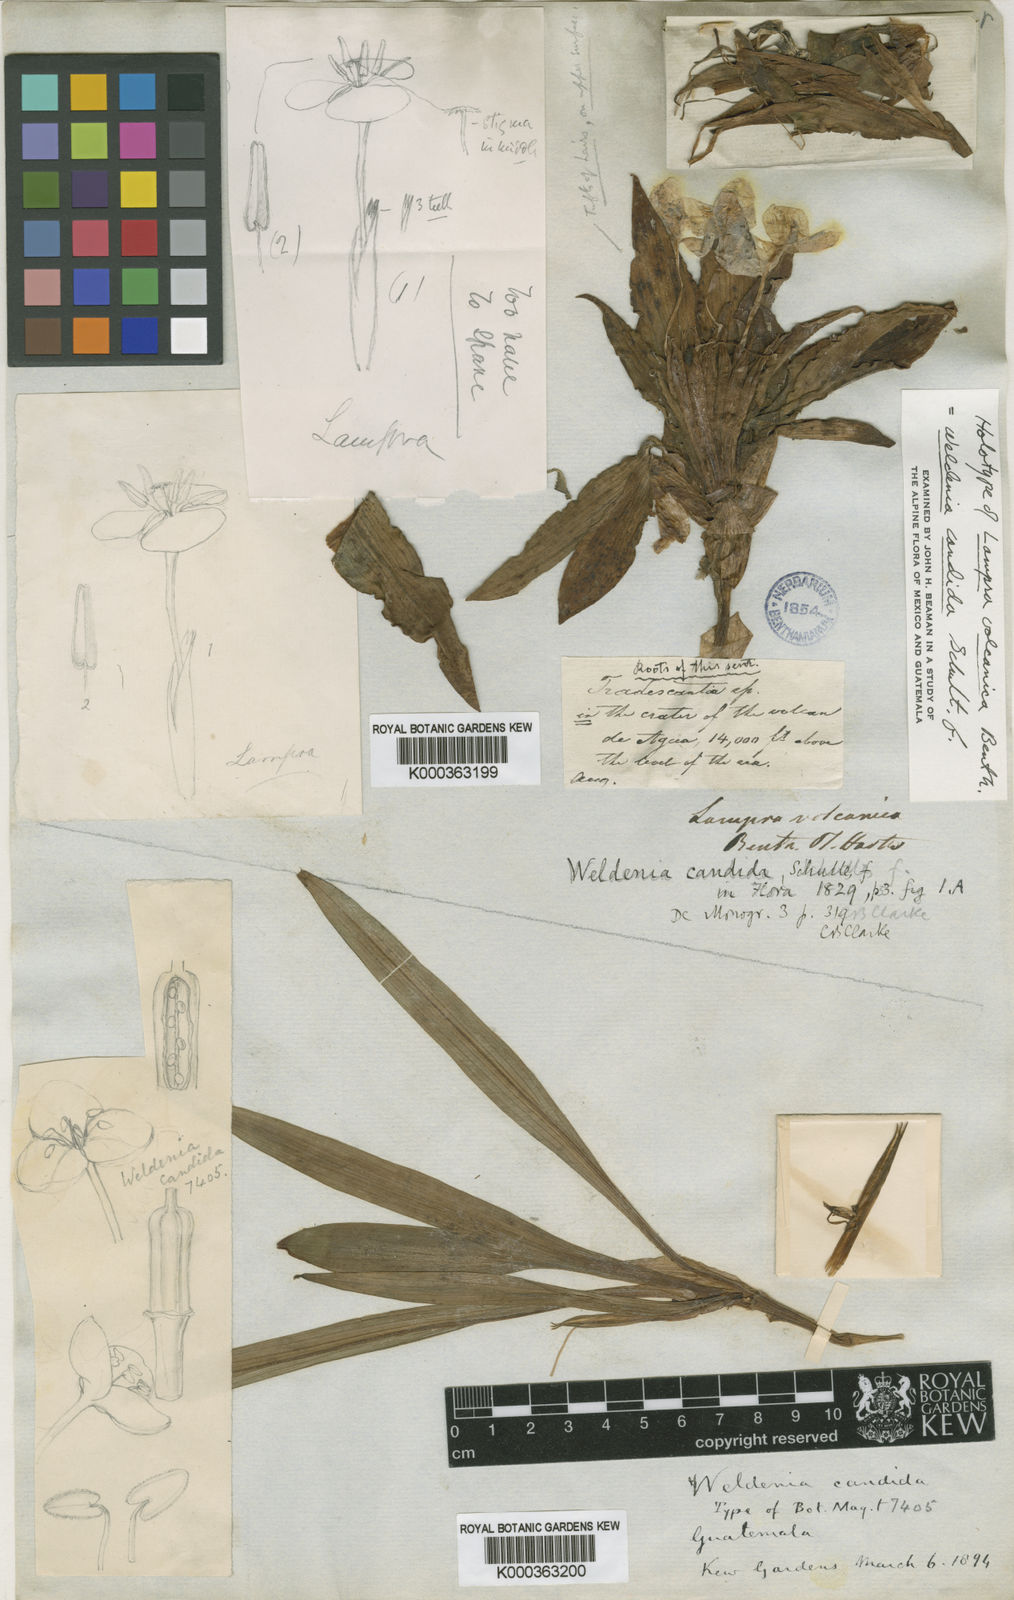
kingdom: Plantae
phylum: Tracheophyta
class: Liliopsida
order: Commelinales
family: Commelinaceae
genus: Weldenia
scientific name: Weldenia candida
